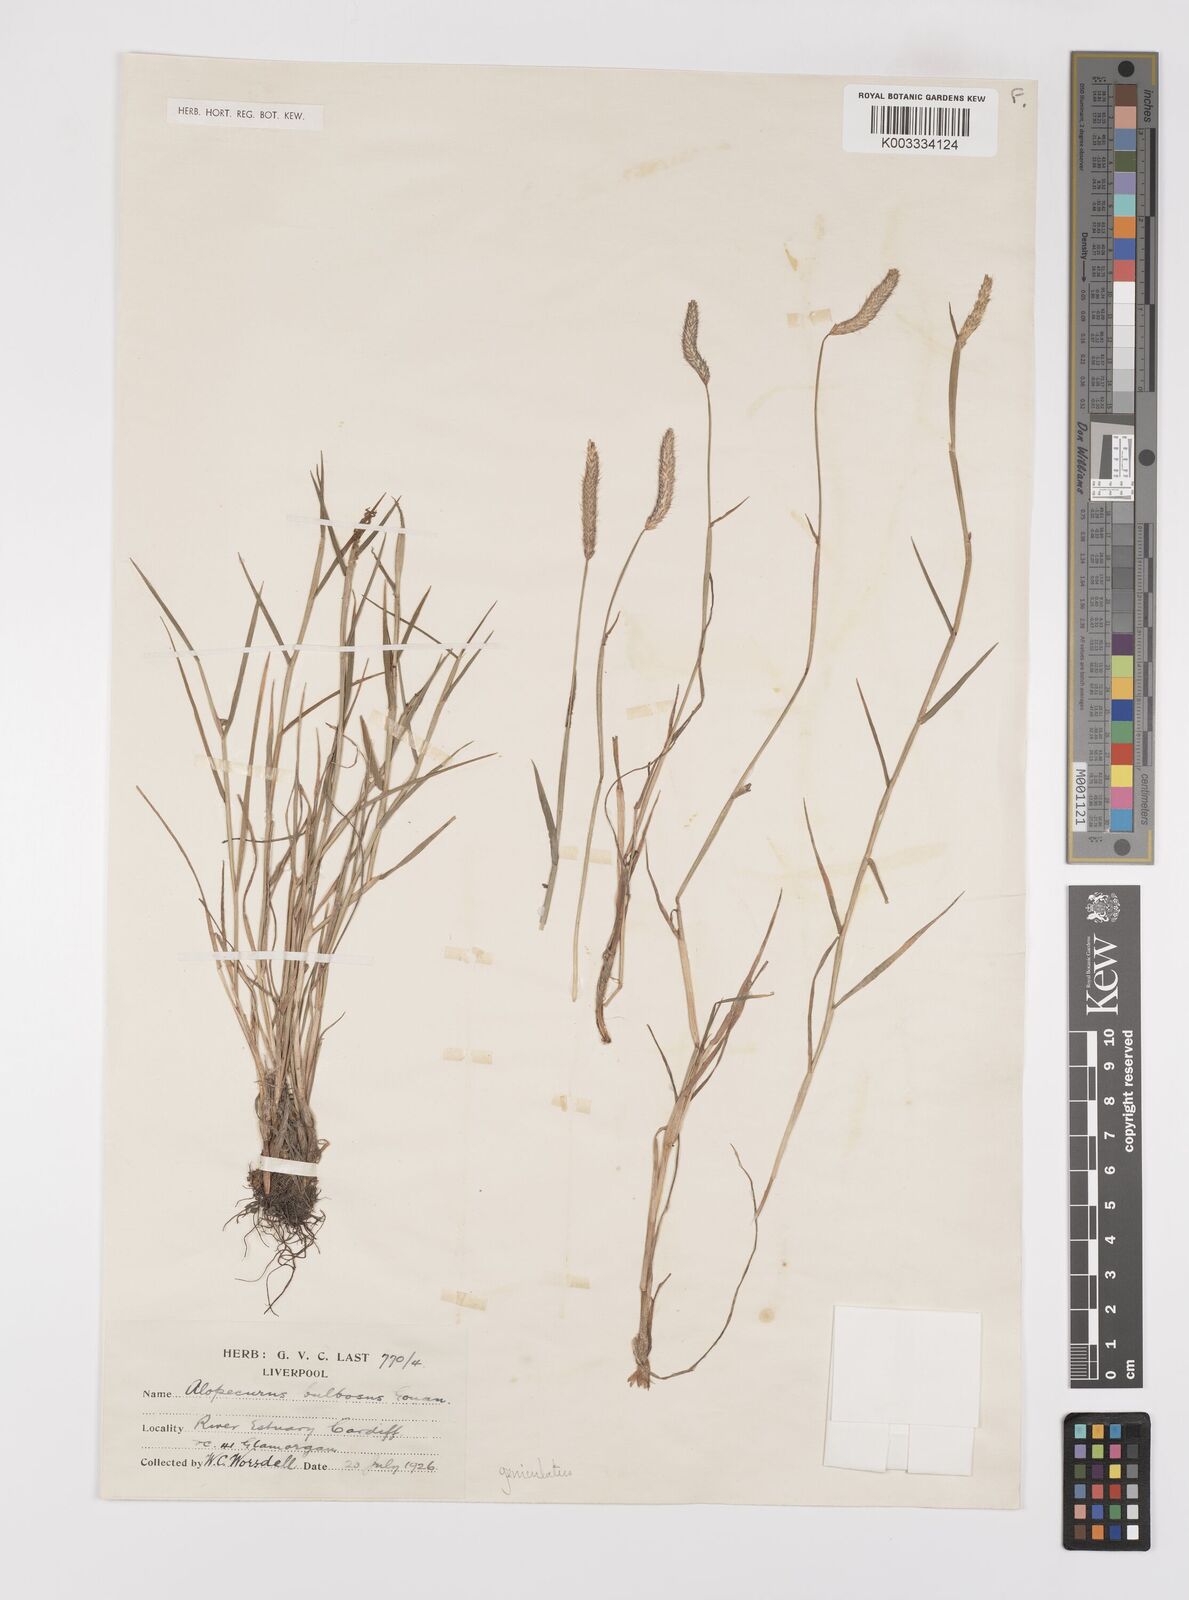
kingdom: Plantae
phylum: Tracheophyta
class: Liliopsida
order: Poales
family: Poaceae
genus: Alopecurus
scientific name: Alopecurus geniculatus
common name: Water foxtail
